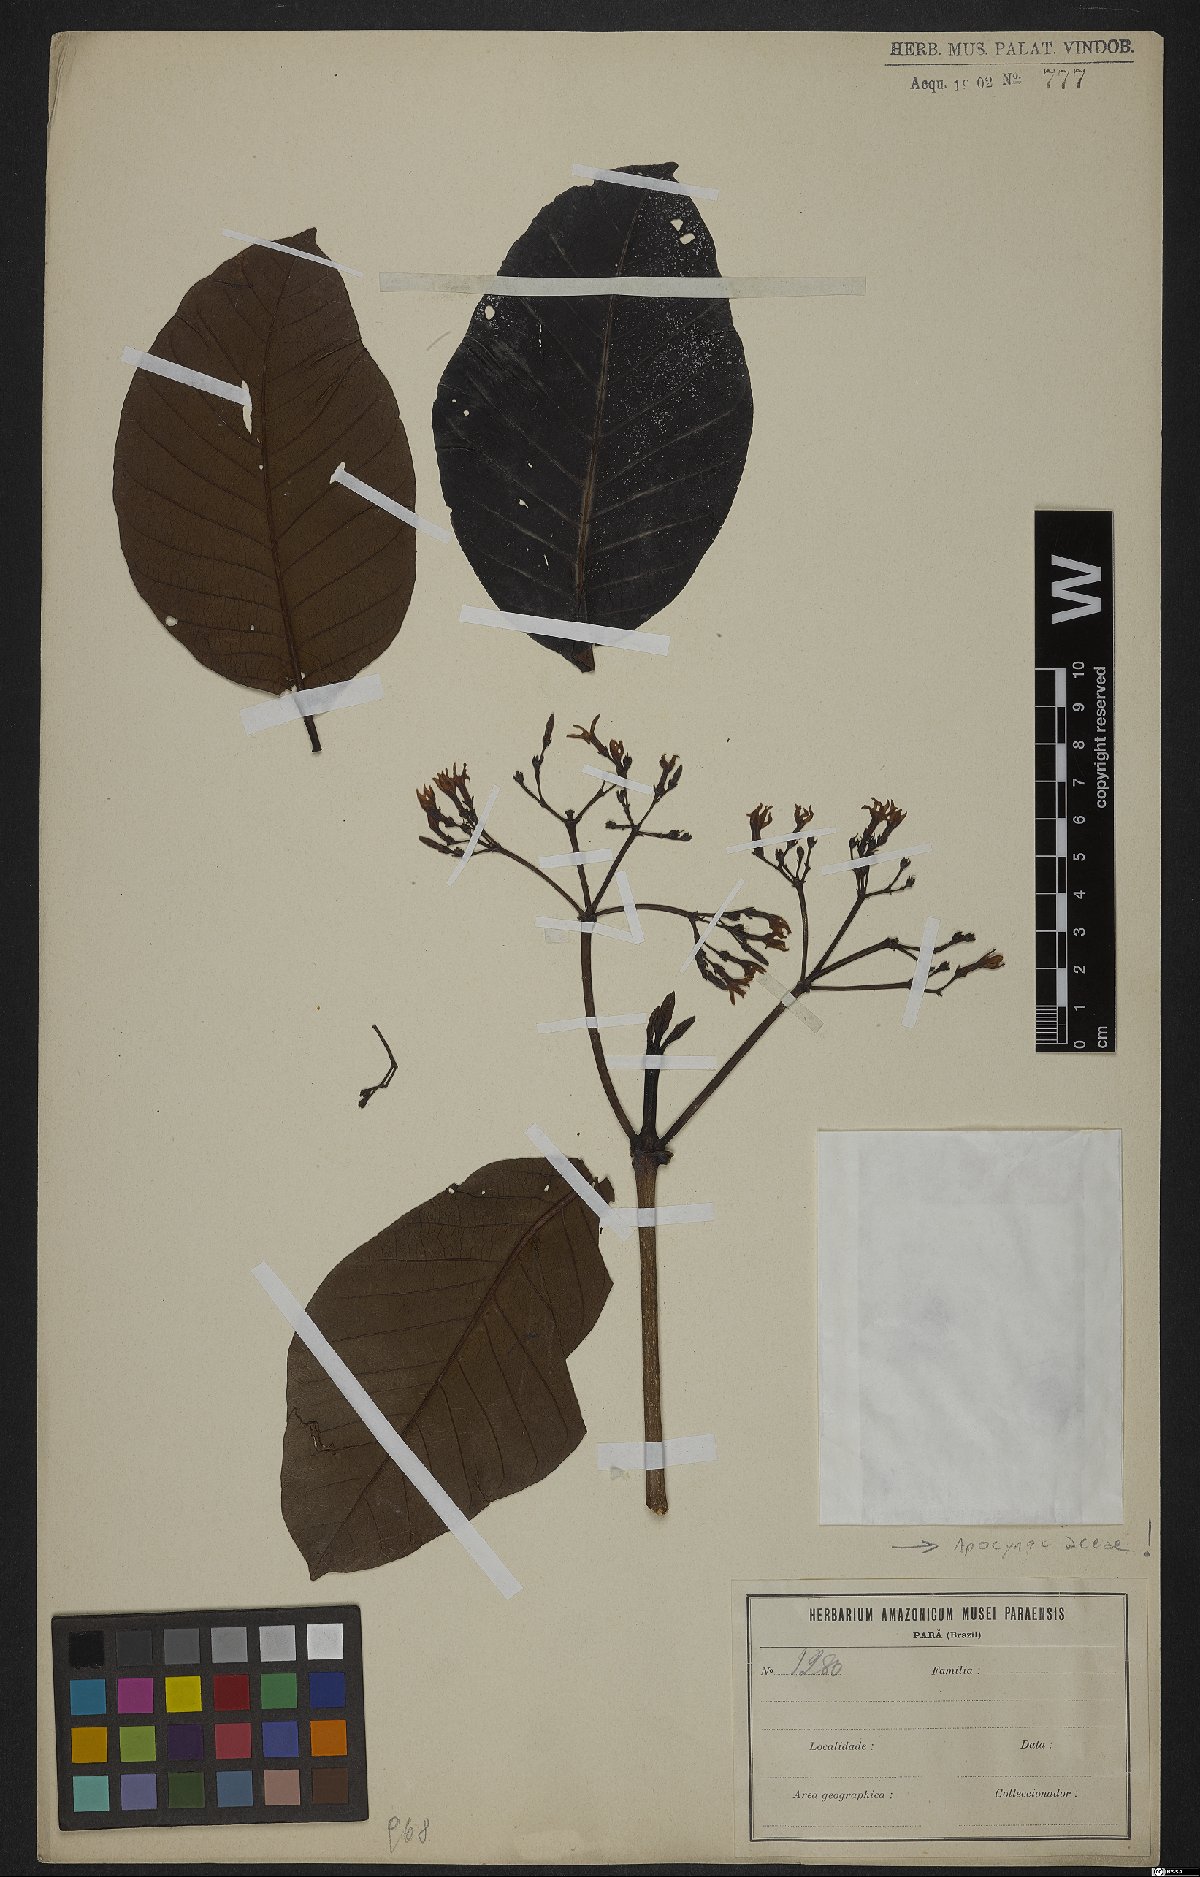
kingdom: Plantae
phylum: Tracheophyta
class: Magnoliopsida
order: Gentianales
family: Apocynaceae
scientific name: Apocynaceae
